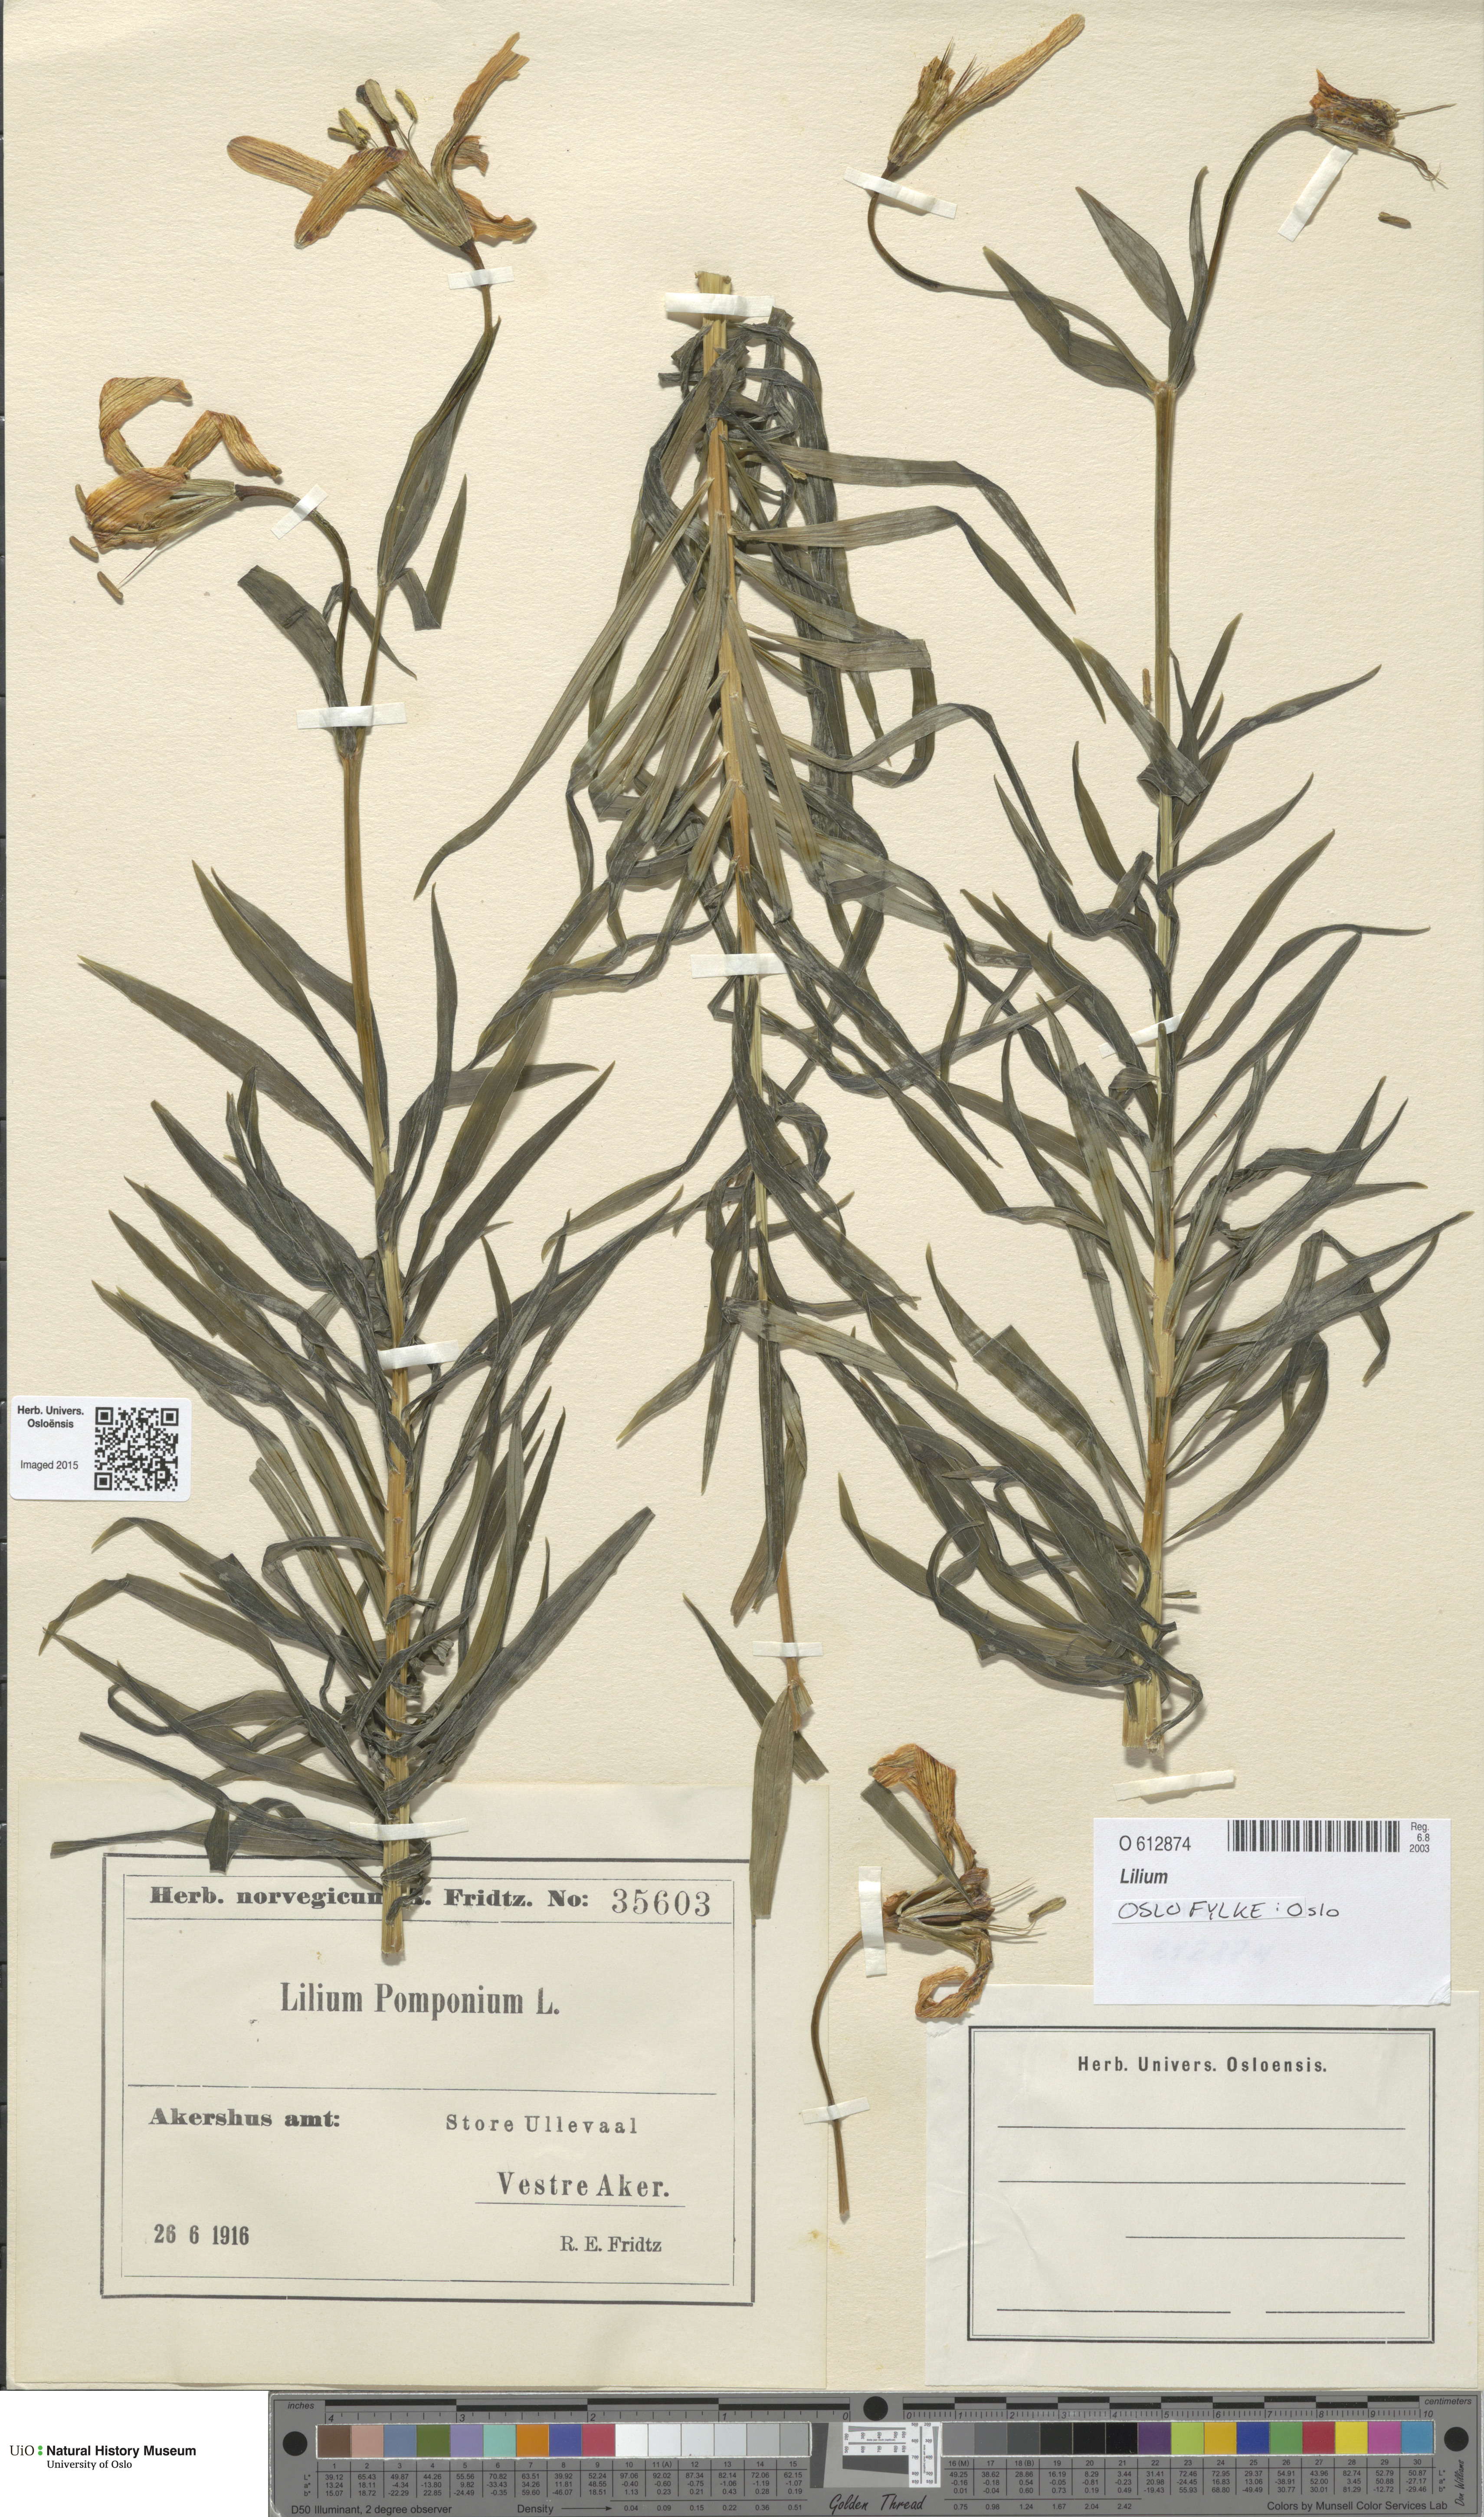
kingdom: Plantae
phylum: Tracheophyta
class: Liliopsida
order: Liliales
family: Liliaceae
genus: Lilium
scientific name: Lilium
